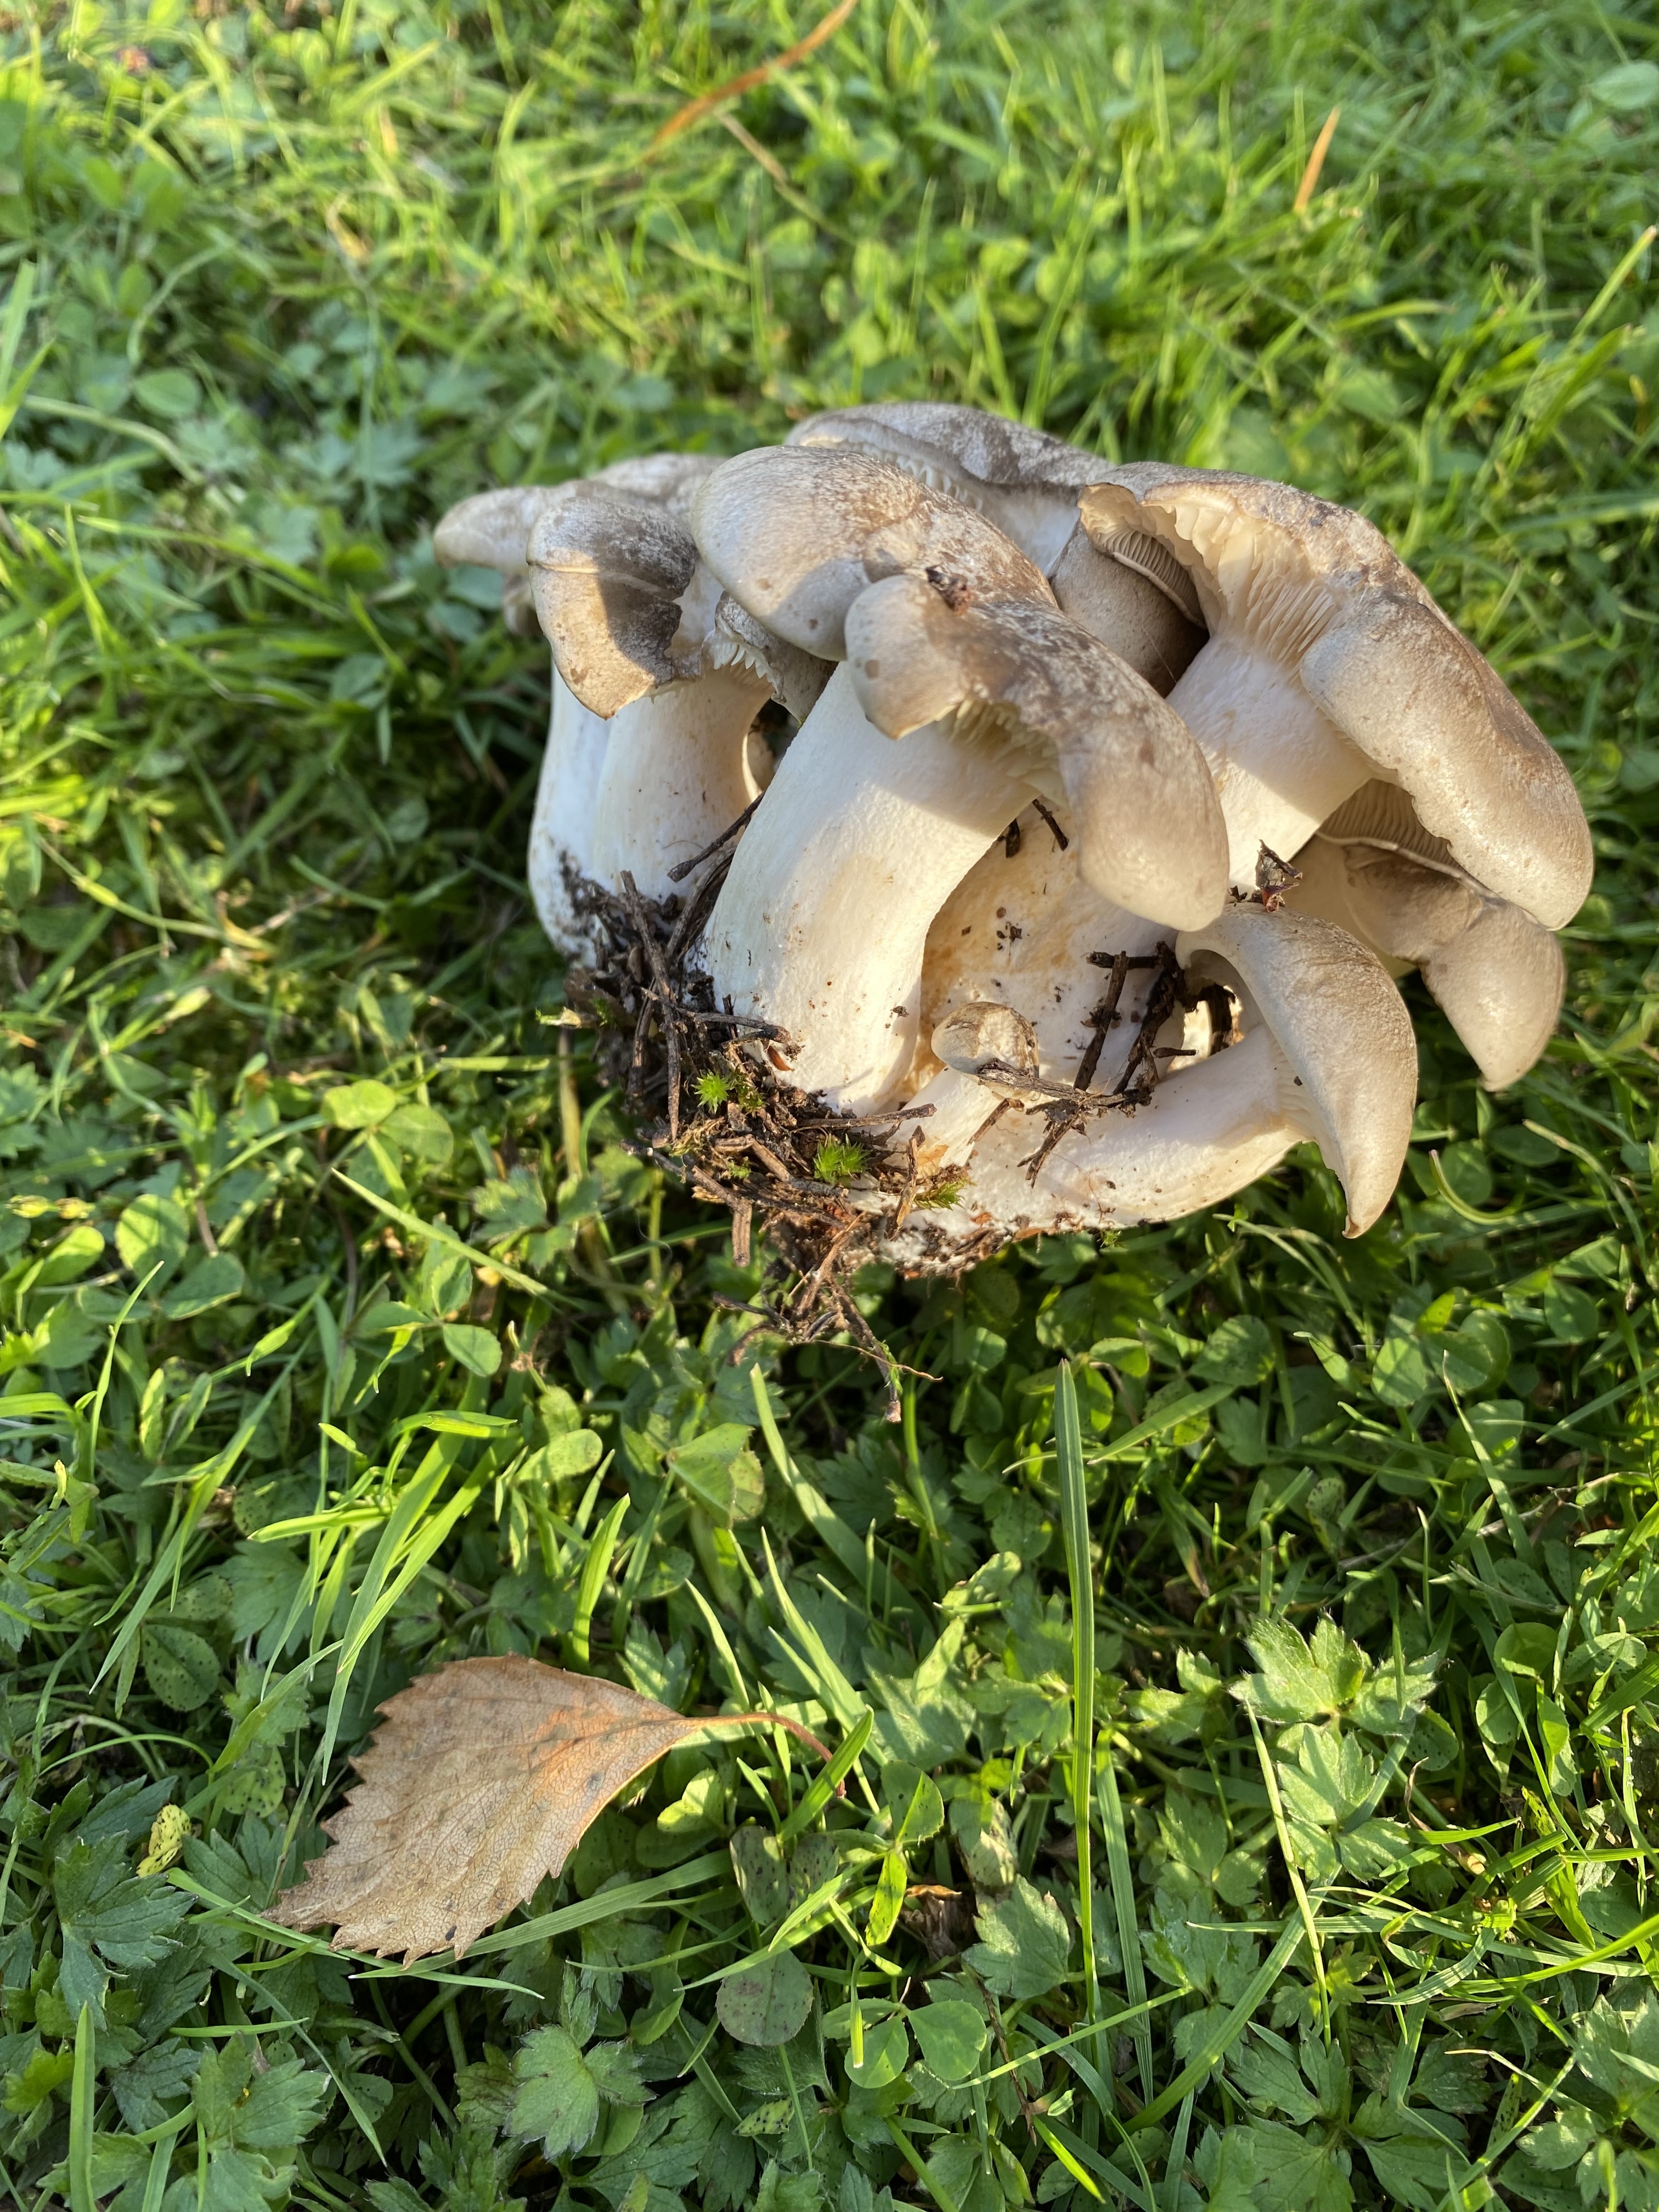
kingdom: Fungi
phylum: Basidiomycota
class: Agaricomycetes
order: Agaricales
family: Lyophyllaceae
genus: Lyophyllum
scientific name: Lyophyllum shimeji
